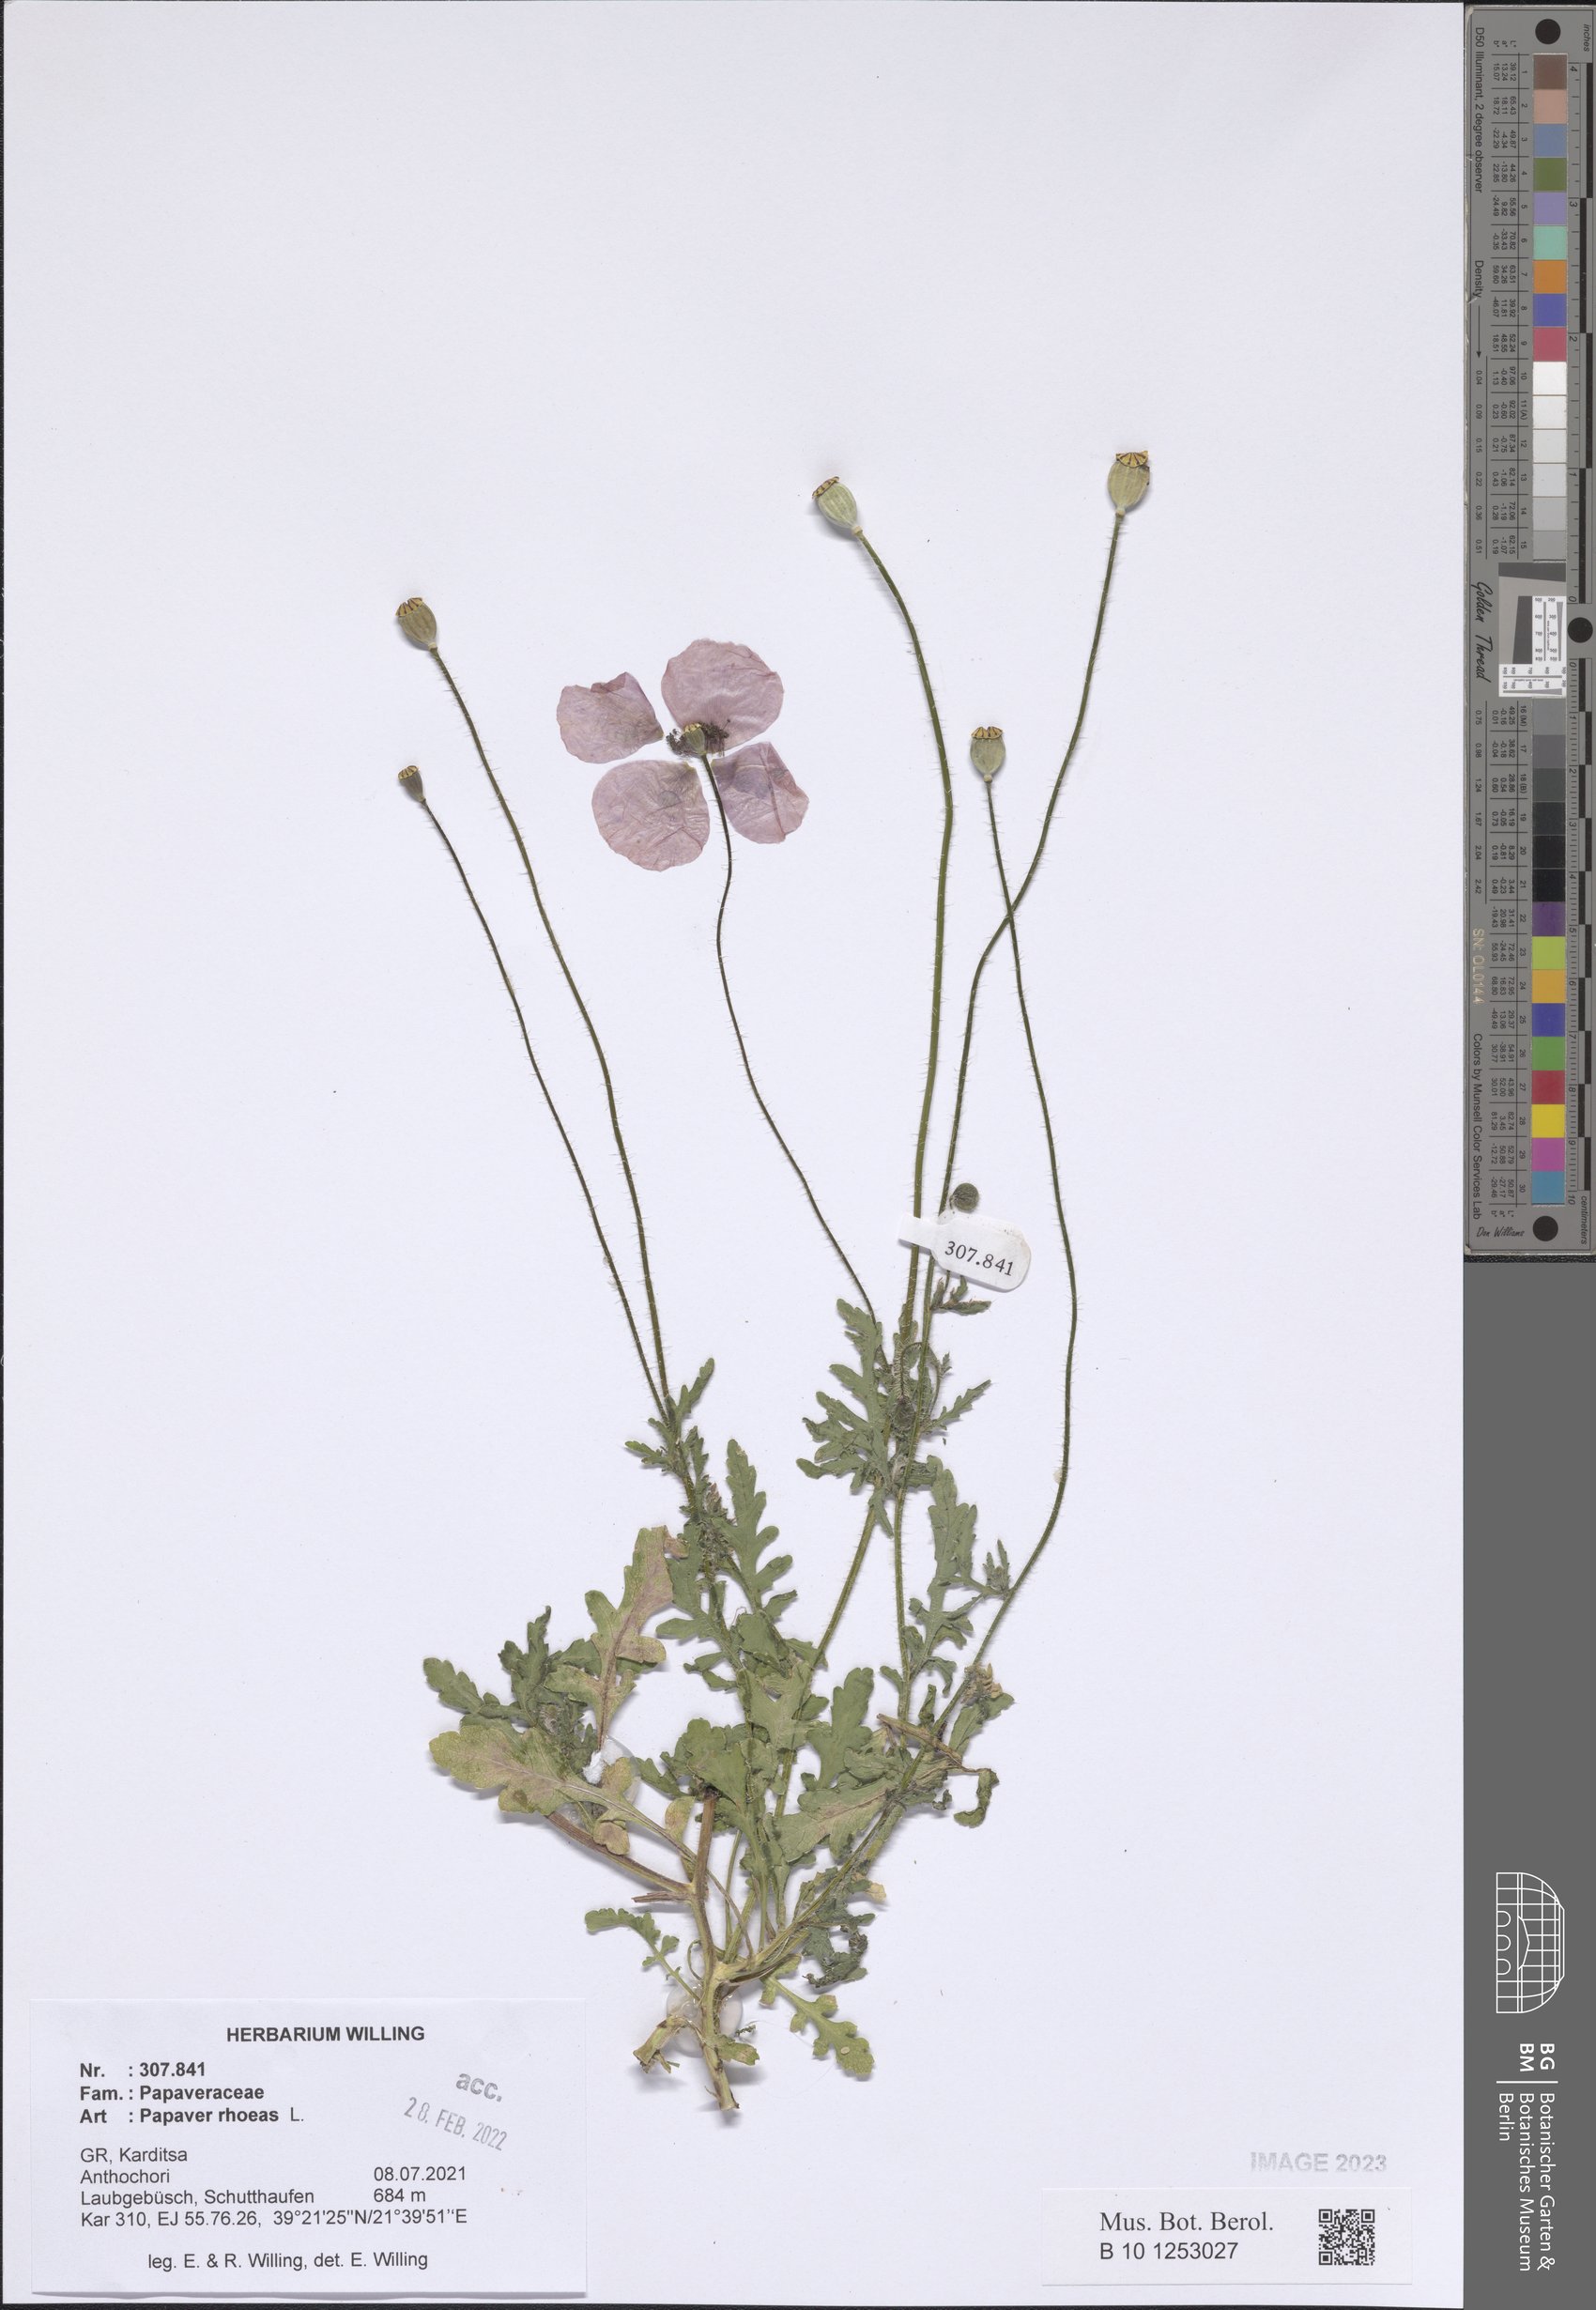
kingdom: Plantae
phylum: Tracheophyta
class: Magnoliopsida
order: Ranunculales
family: Papaveraceae
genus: Papaver
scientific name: Papaver rhoeas
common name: Corn poppy
